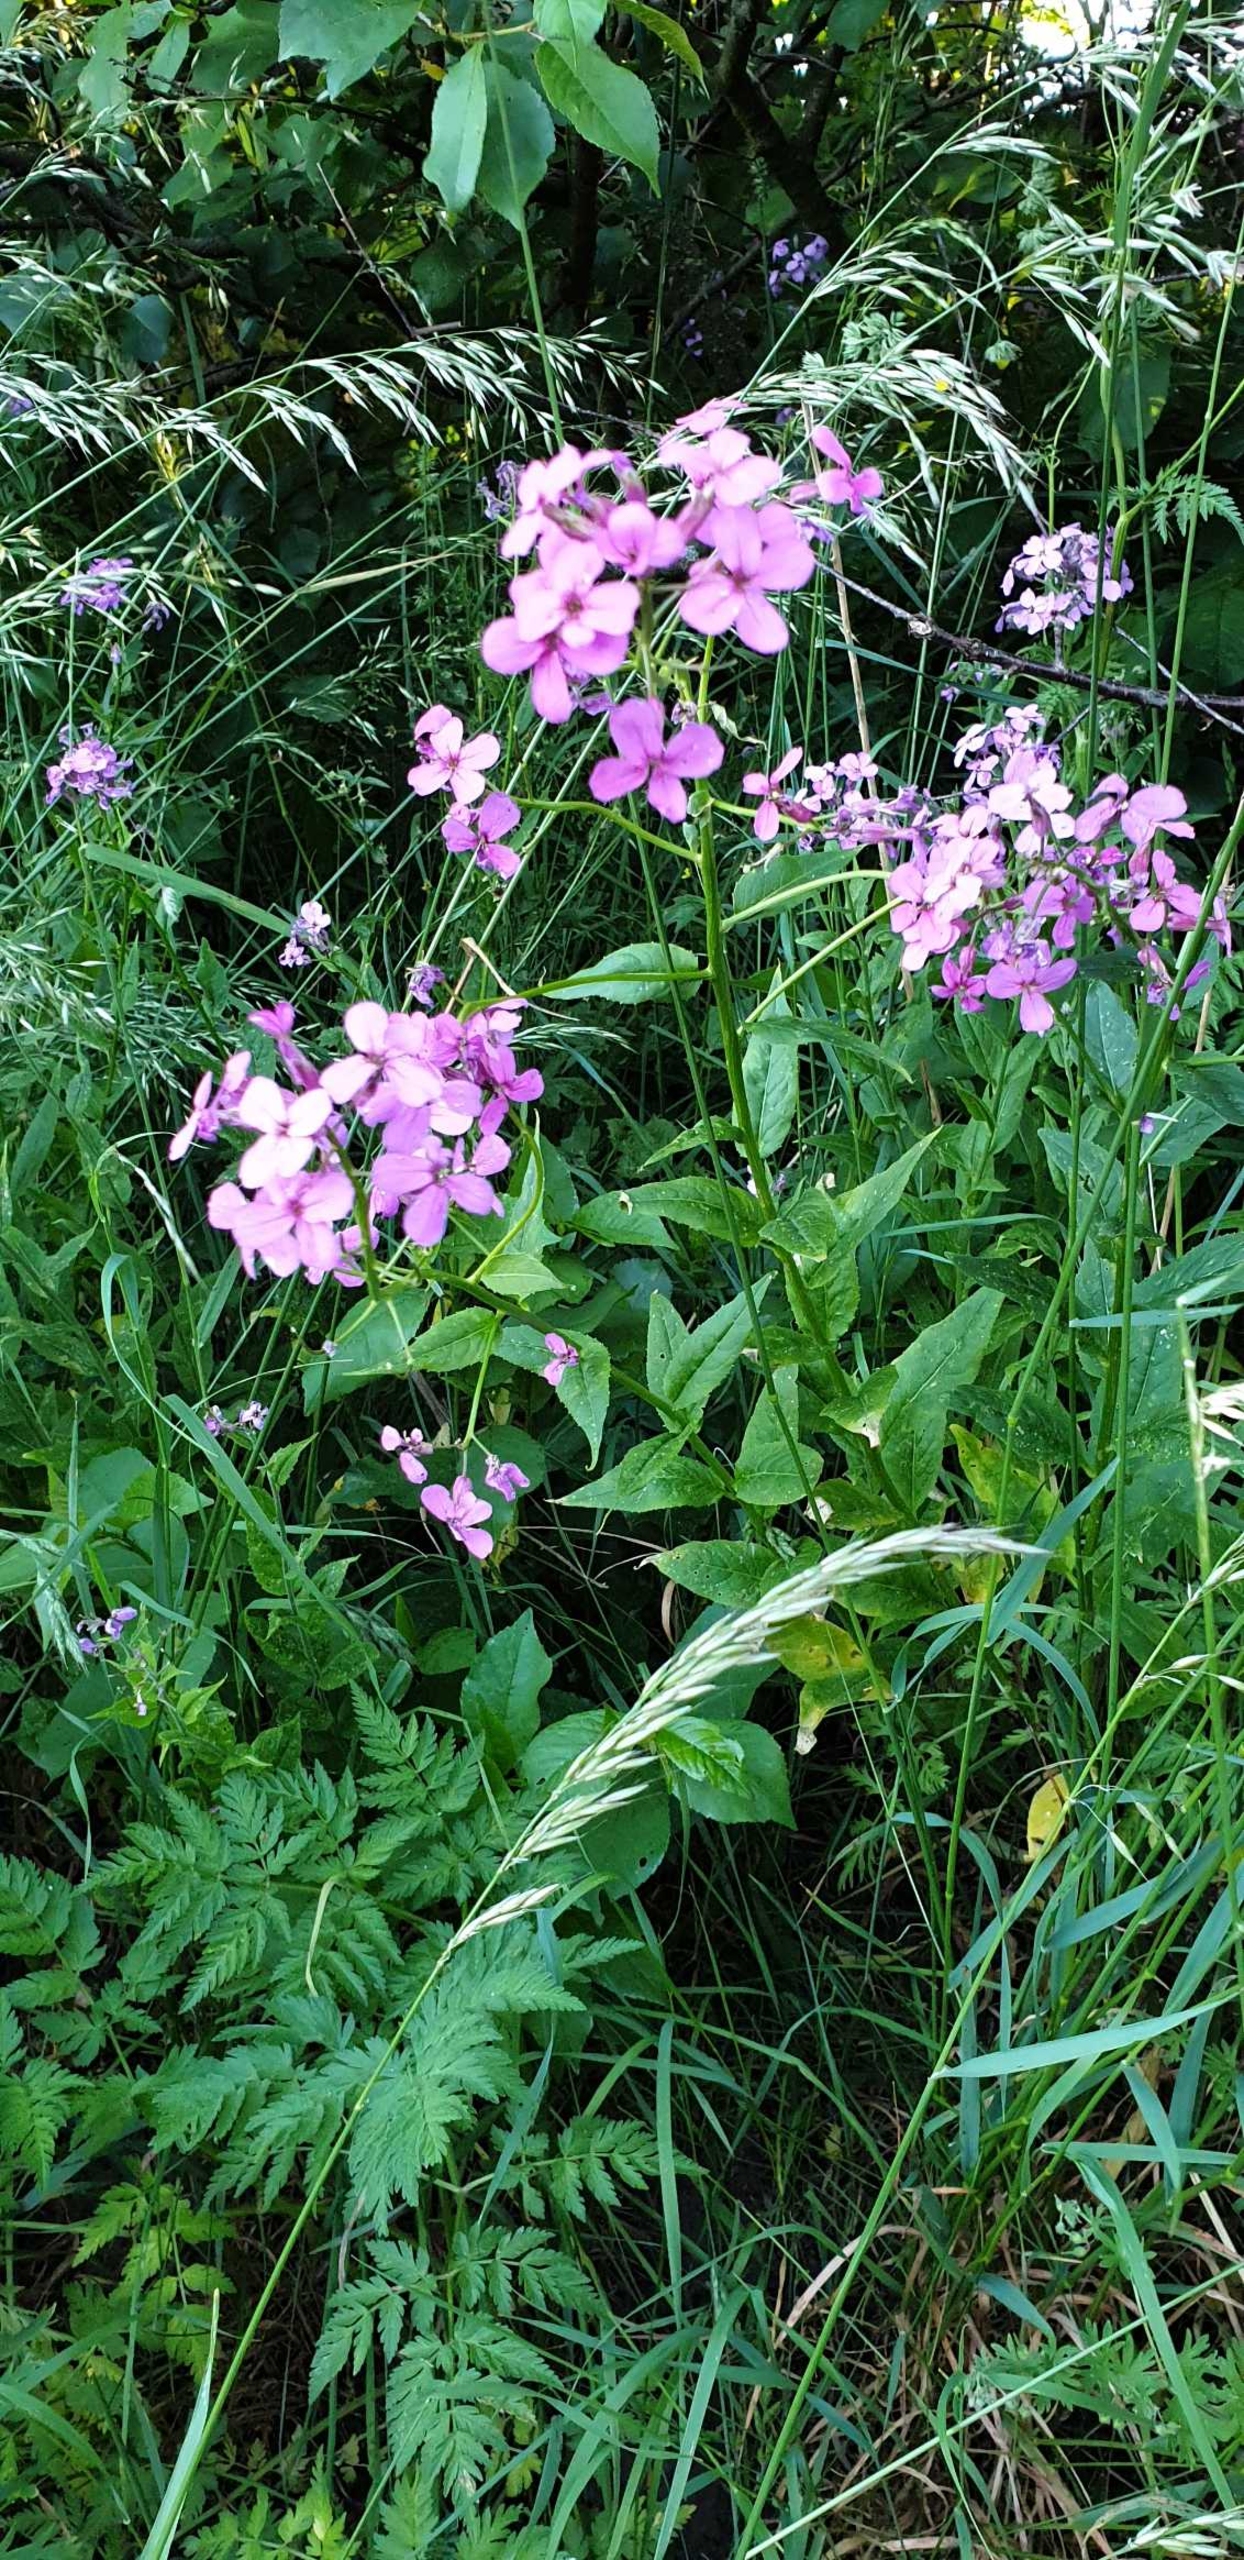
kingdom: Plantae
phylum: Tracheophyta
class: Magnoliopsida
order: Brassicales
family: Brassicaceae
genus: Hesperis
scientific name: Hesperis matronalis
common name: Aftenstjerne
